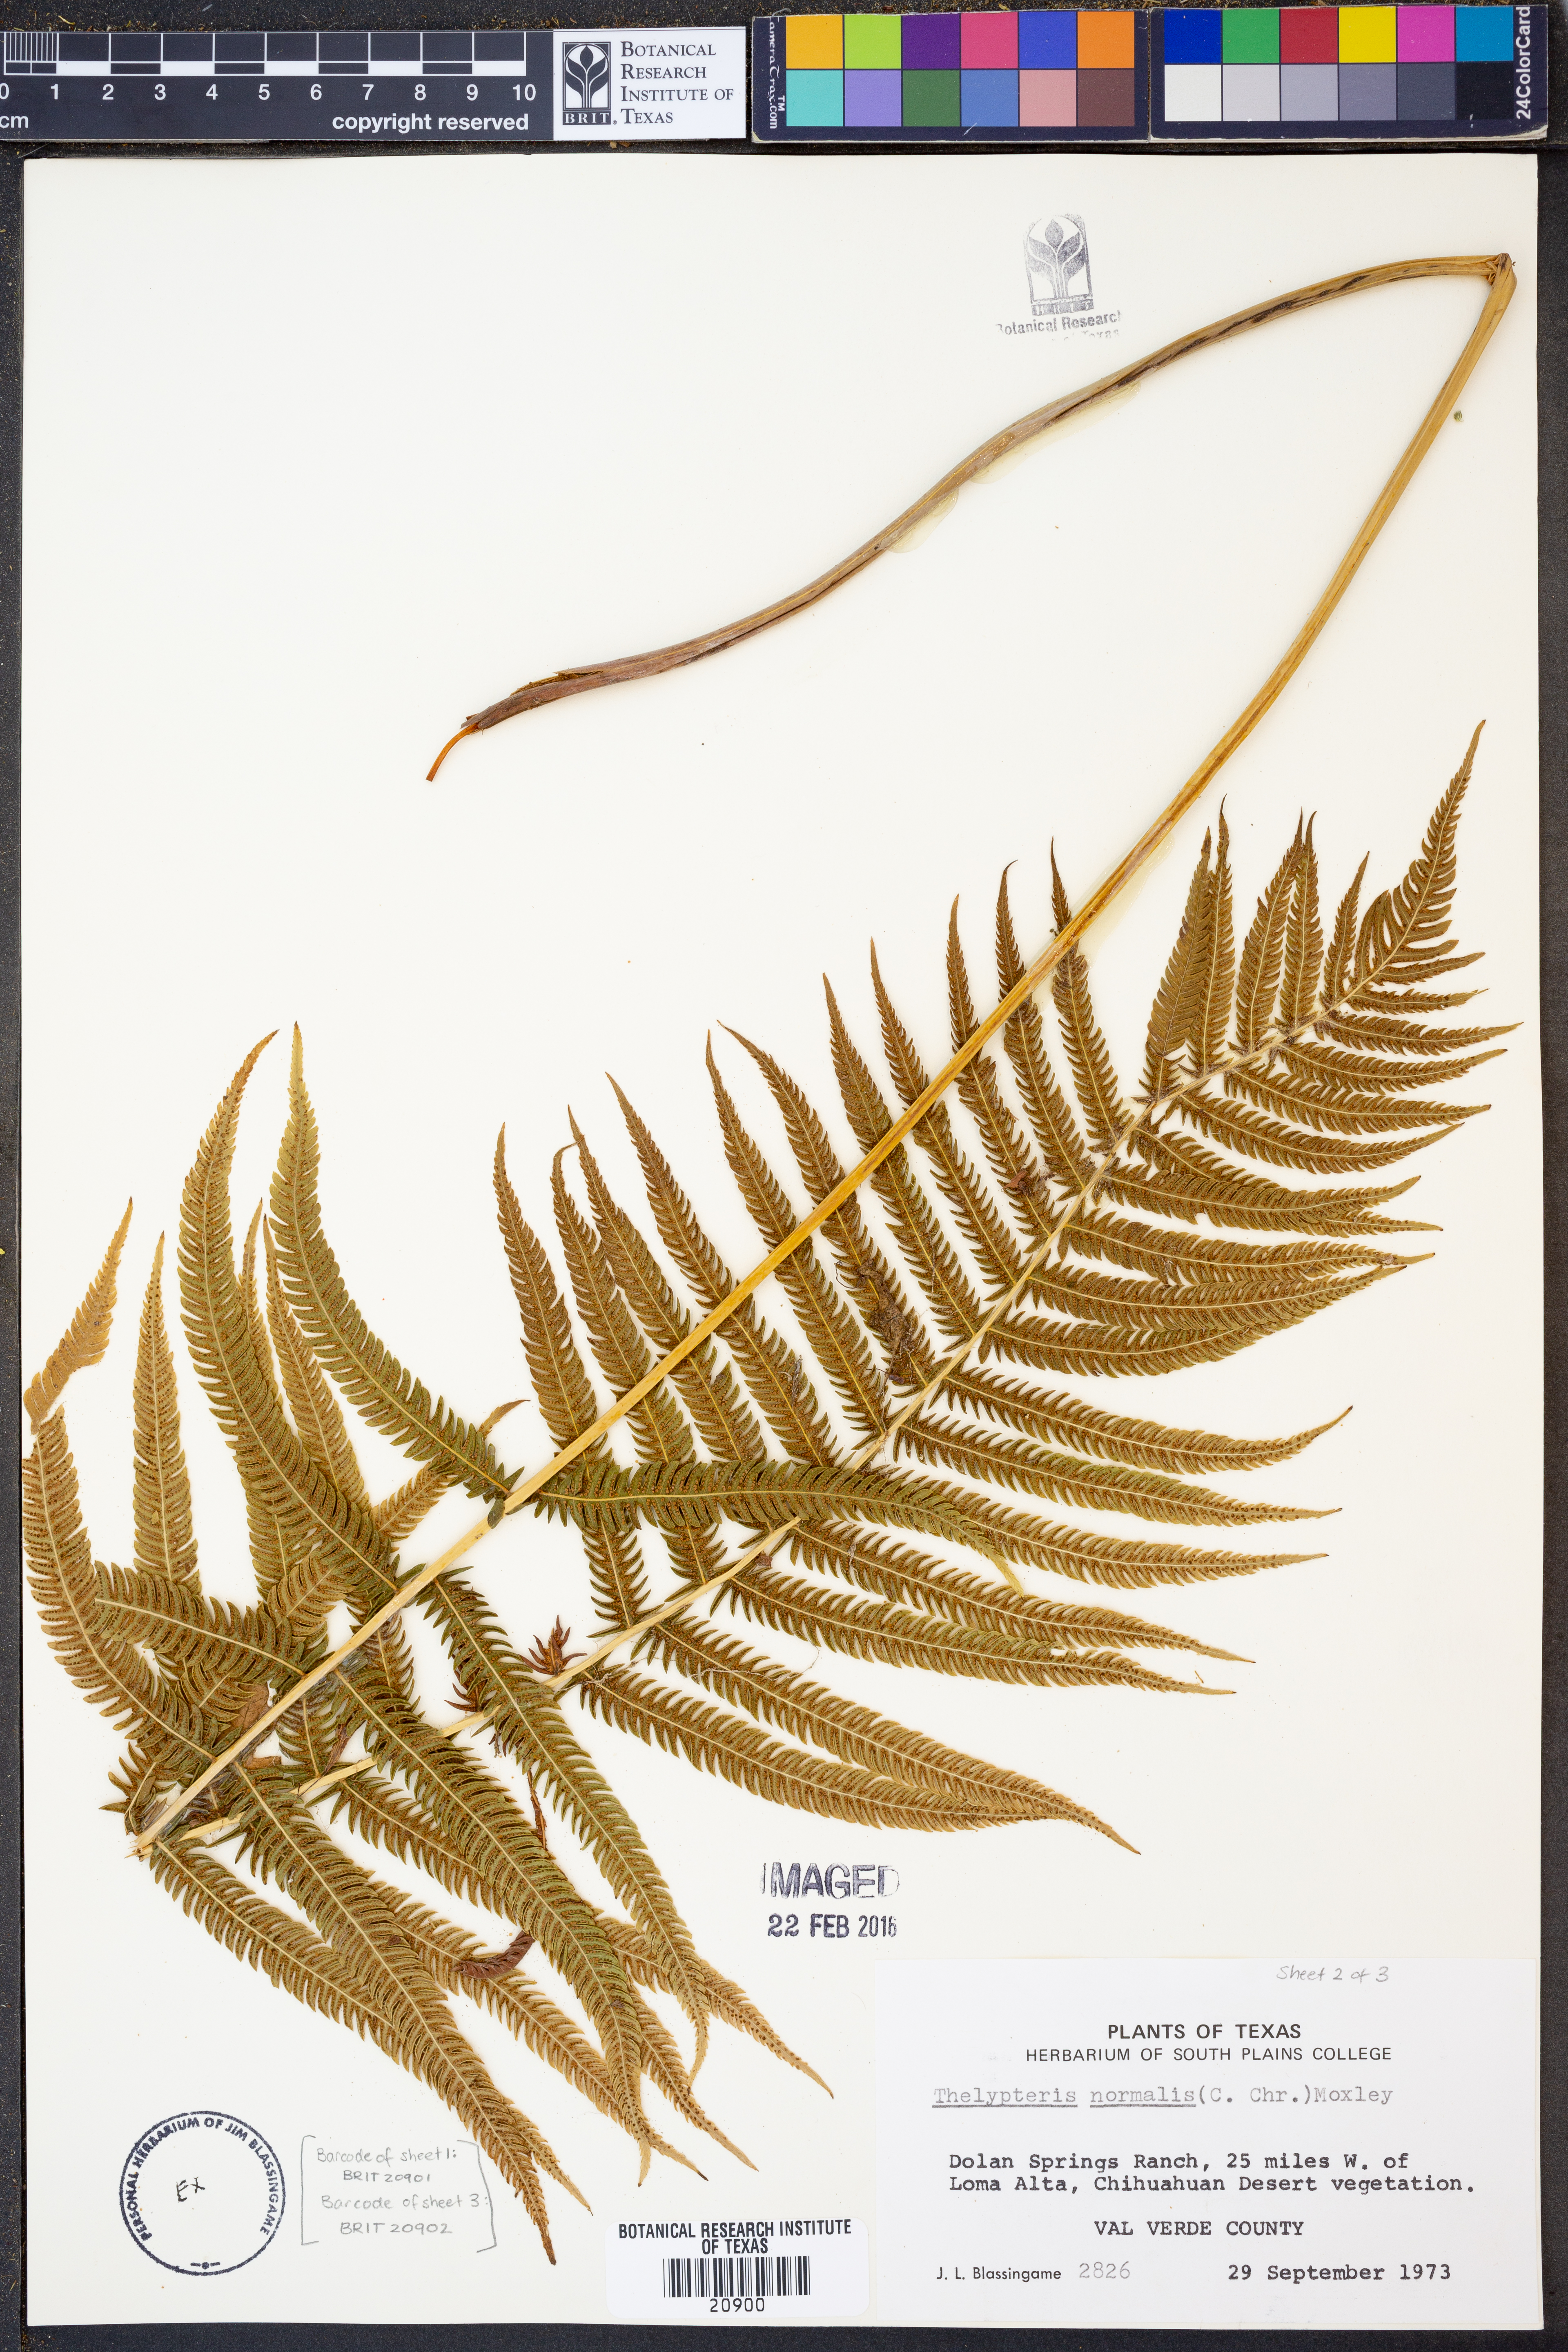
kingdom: Plantae
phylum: Tracheophyta
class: Polypodiopsida
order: Polypodiales
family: Thelypteridaceae
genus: Pelazoneuron
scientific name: Pelazoneuron kunthii
